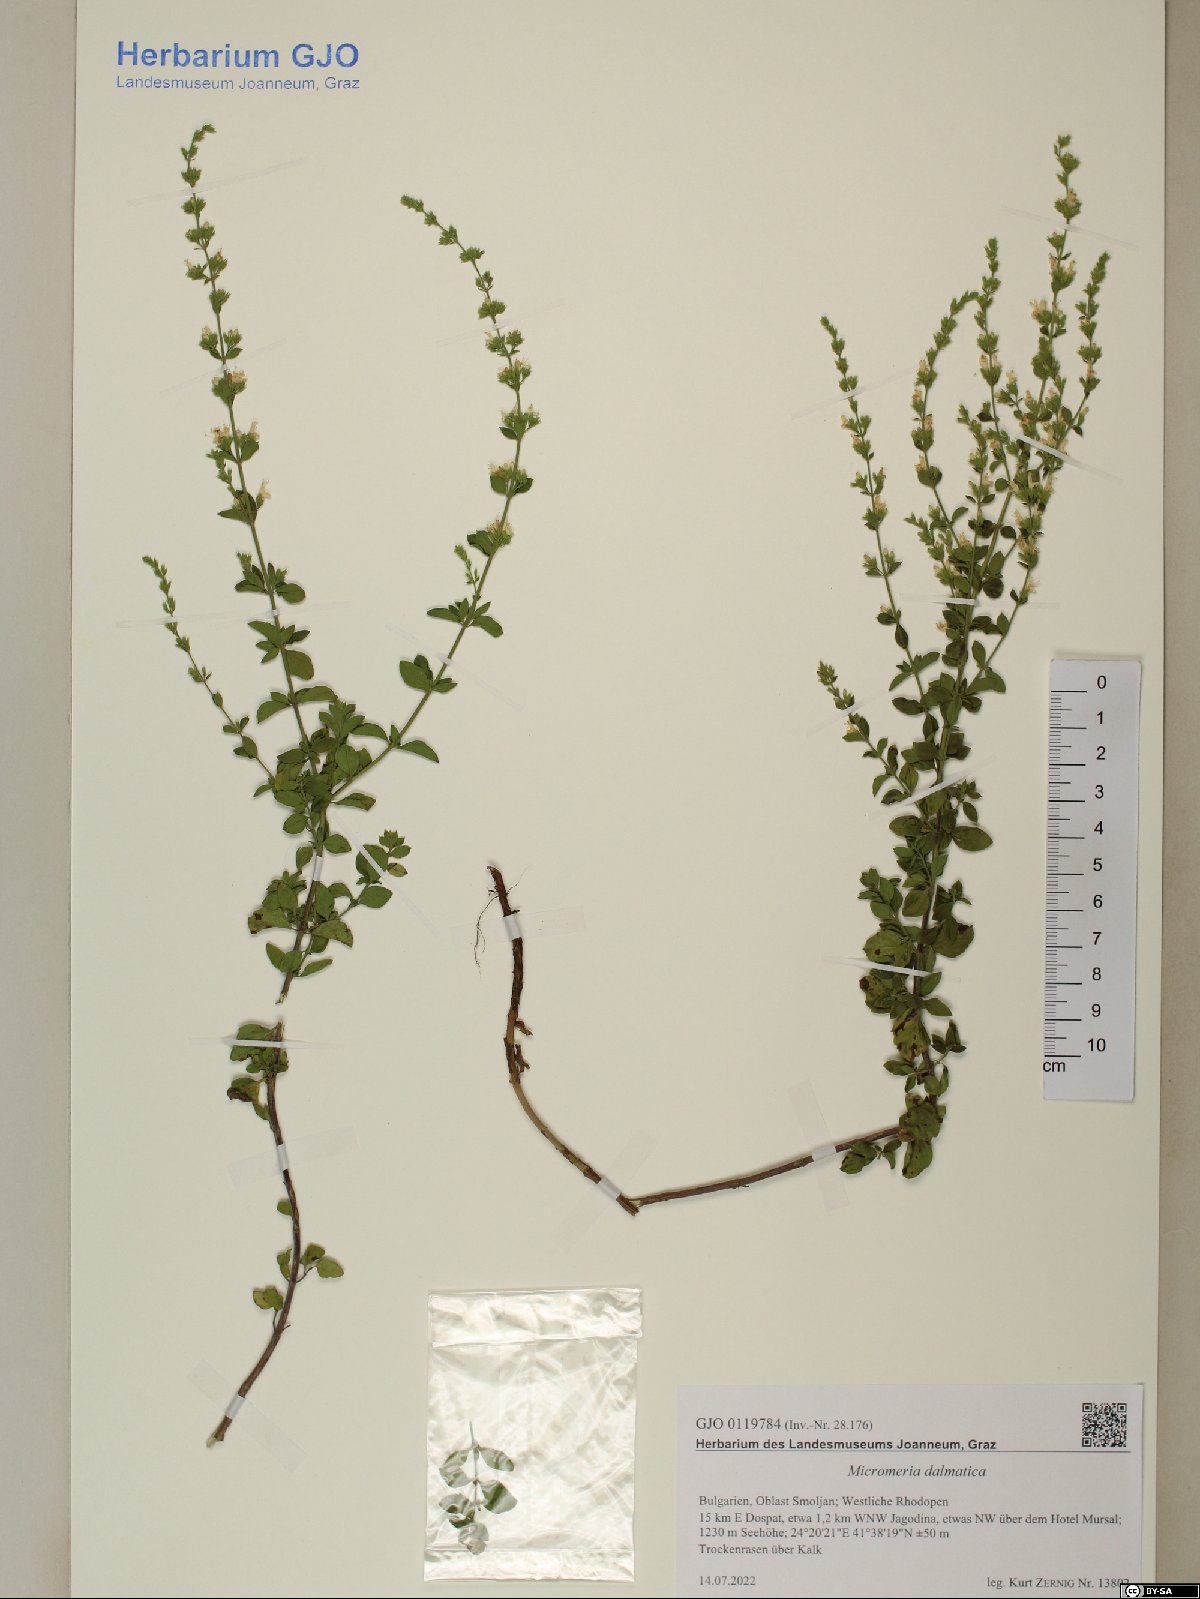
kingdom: Plantae
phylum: Tracheophyta
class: Magnoliopsida
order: Lamiales
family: Lamiaceae
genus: Clinopodium
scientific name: Clinopodium dalmaticum
